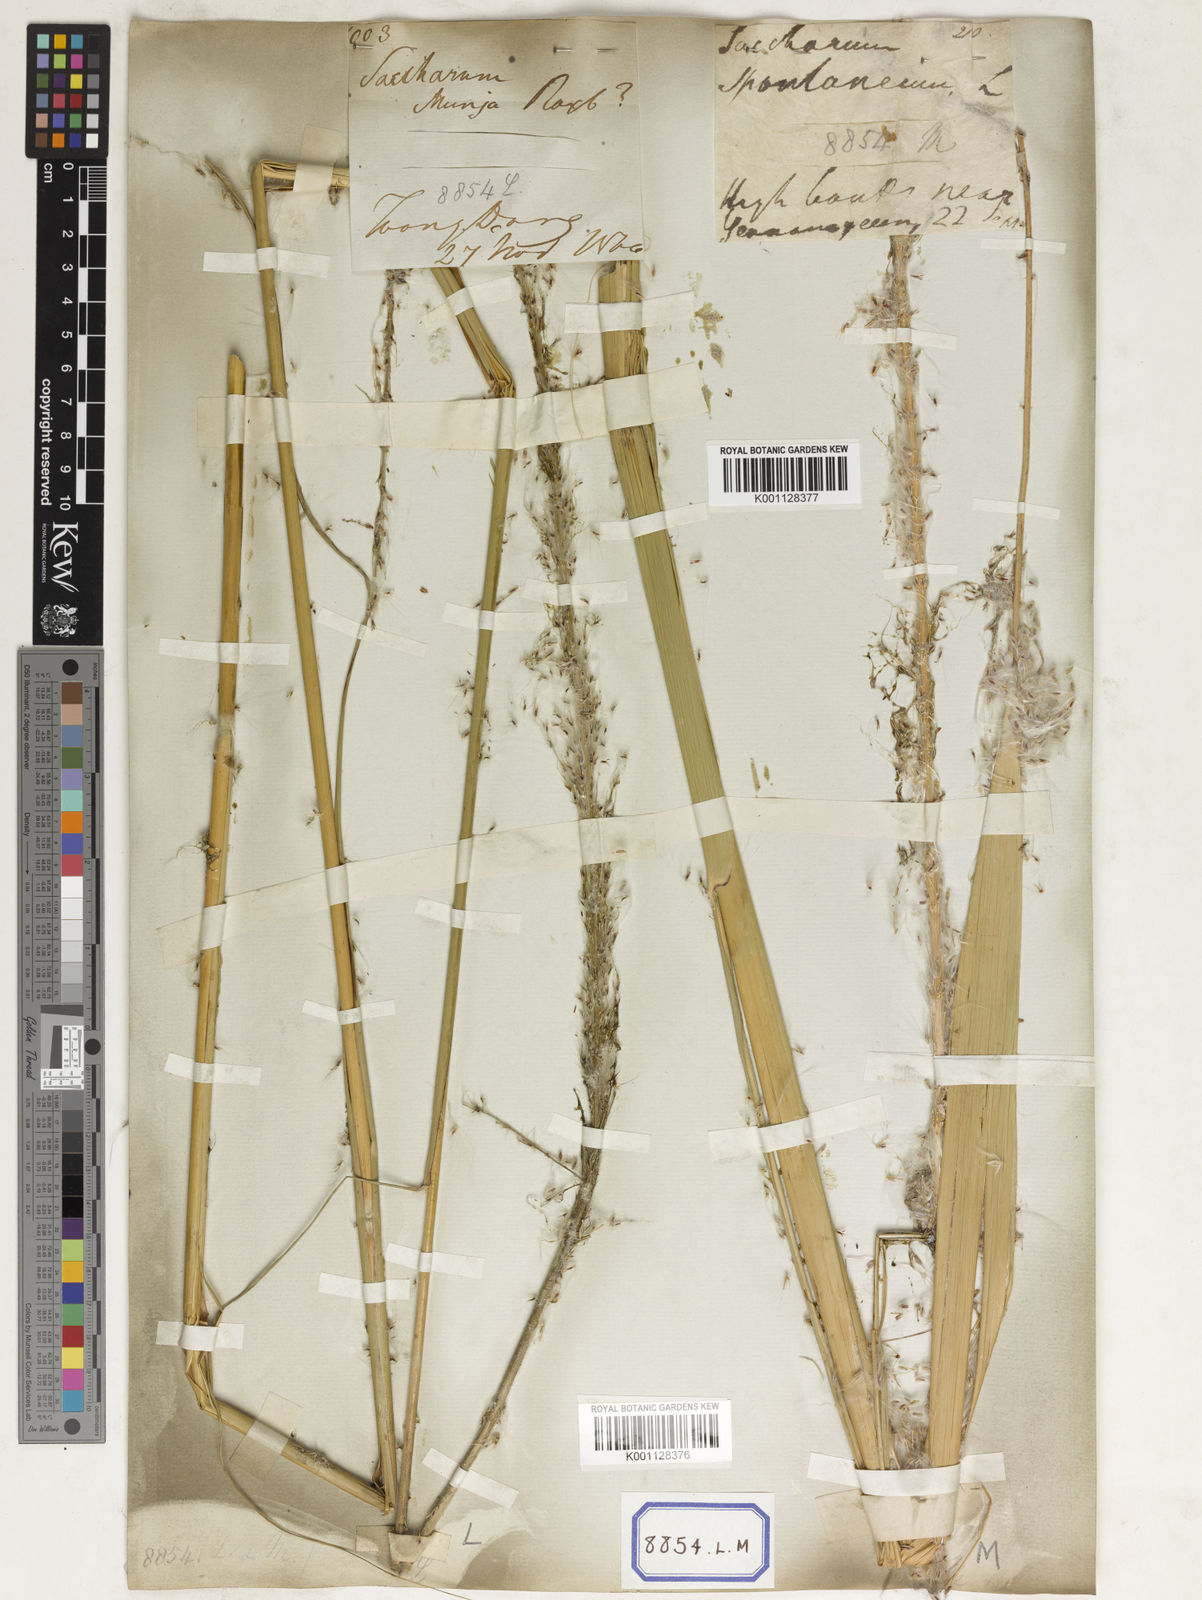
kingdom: Plantae
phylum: Tracheophyta
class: Liliopsida
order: Poales
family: Poaceae
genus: Saccharum
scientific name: Saccharum
